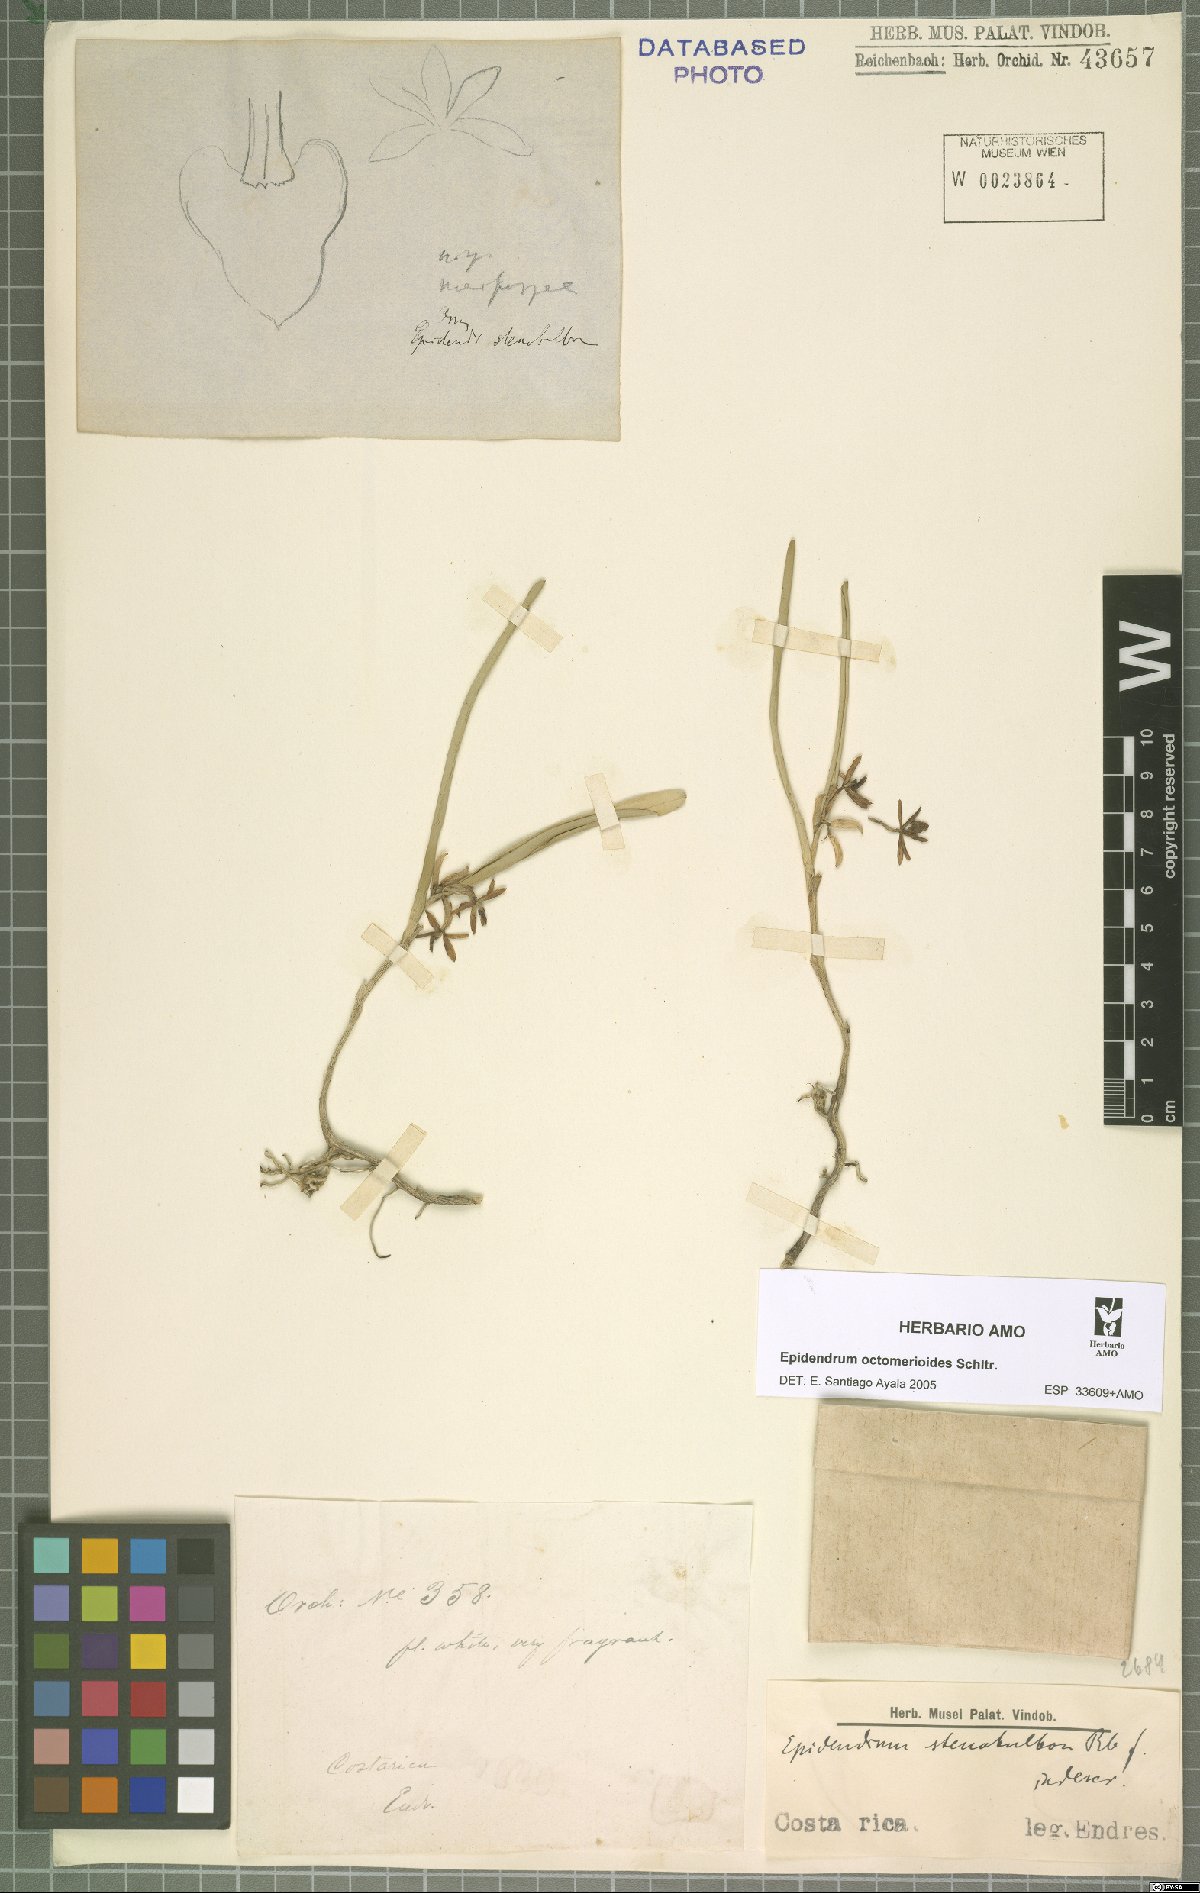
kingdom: Plantae
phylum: Tracheophyta
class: Liliopsida
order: Asparagales
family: Orchidaceae
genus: Epidendrum
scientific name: Epidendrum octomerioides
